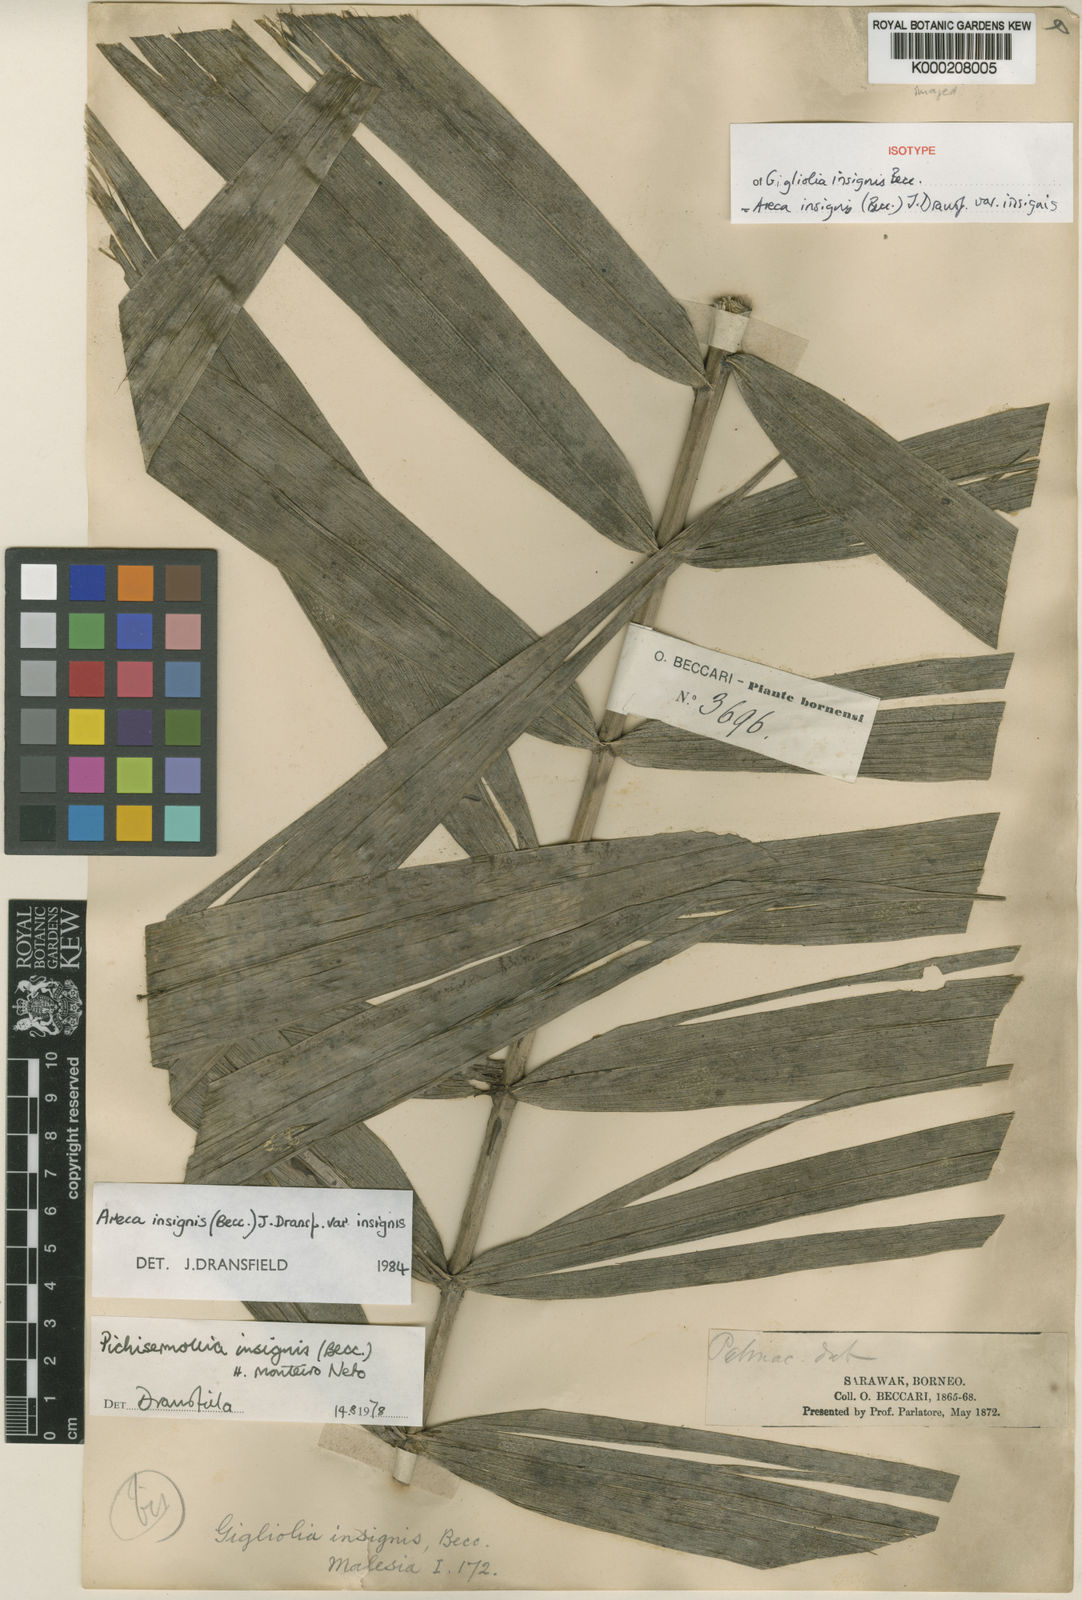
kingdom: Plantae
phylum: Tracheophyta
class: Liliopsida
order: Arecales
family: Arecaceae
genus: Areca
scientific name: Areca insignis
